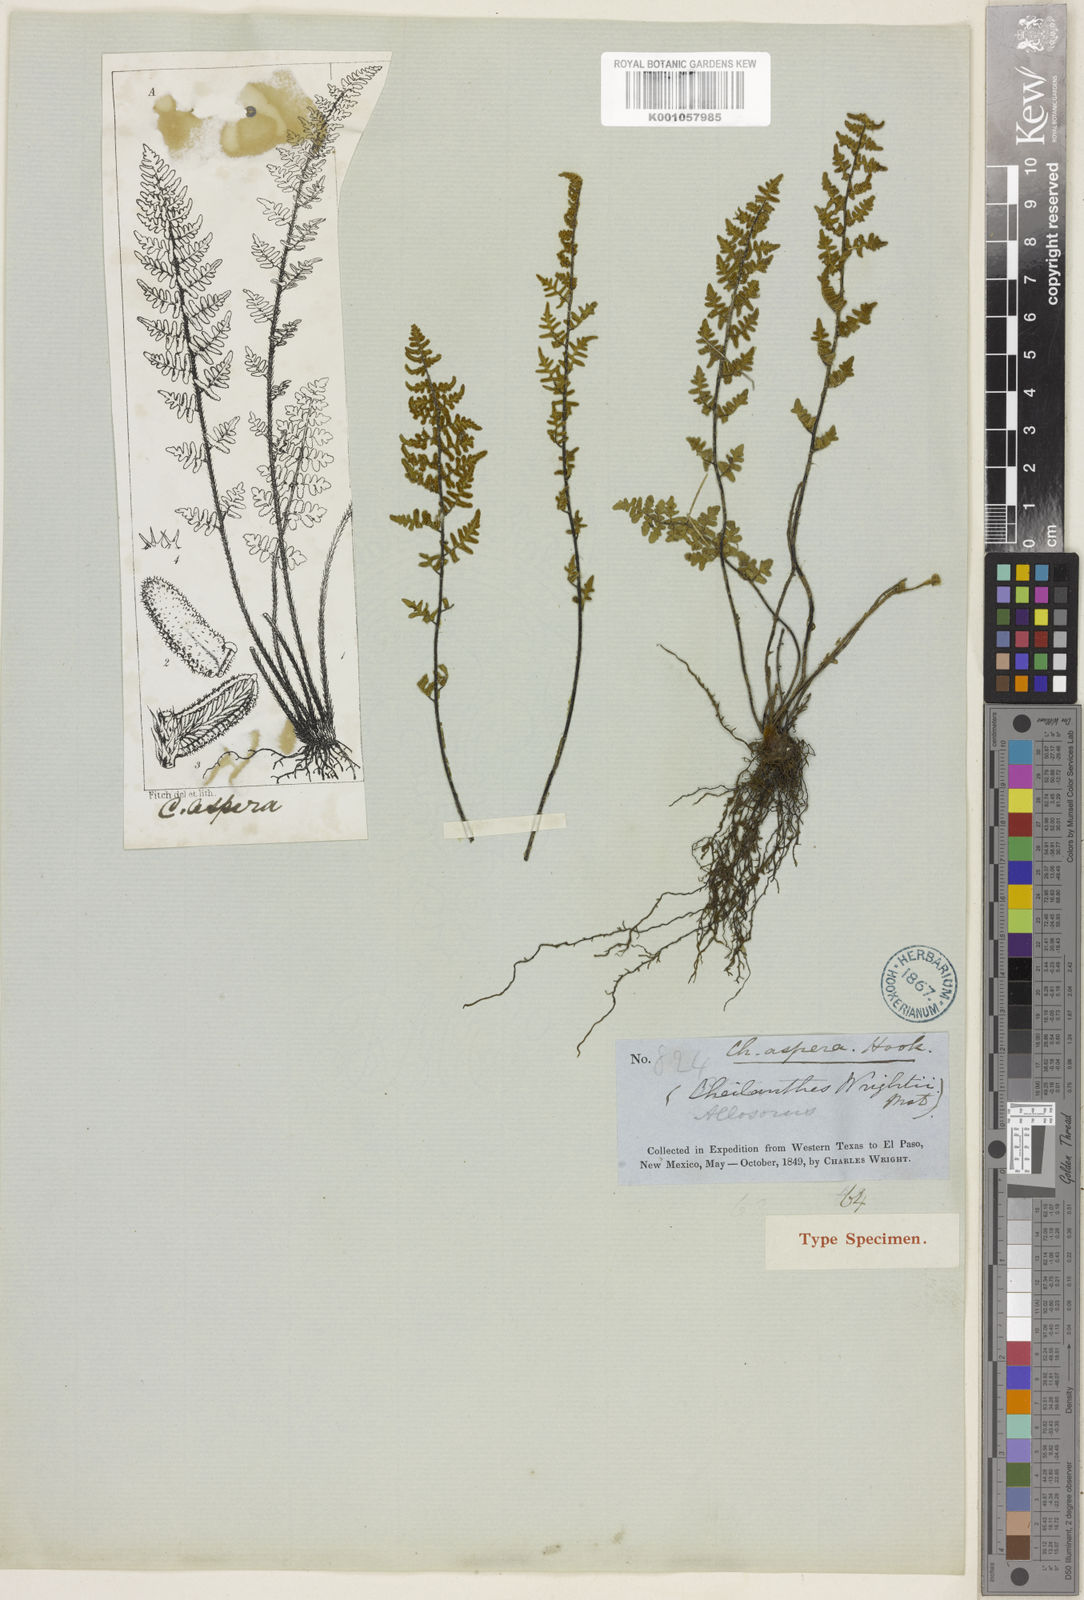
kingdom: Plantae
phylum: Tracheophyta
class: Polypodiopsida
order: Polypodiales
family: Pteridaceae
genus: Myriopteris
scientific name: Myriopteris scabra
